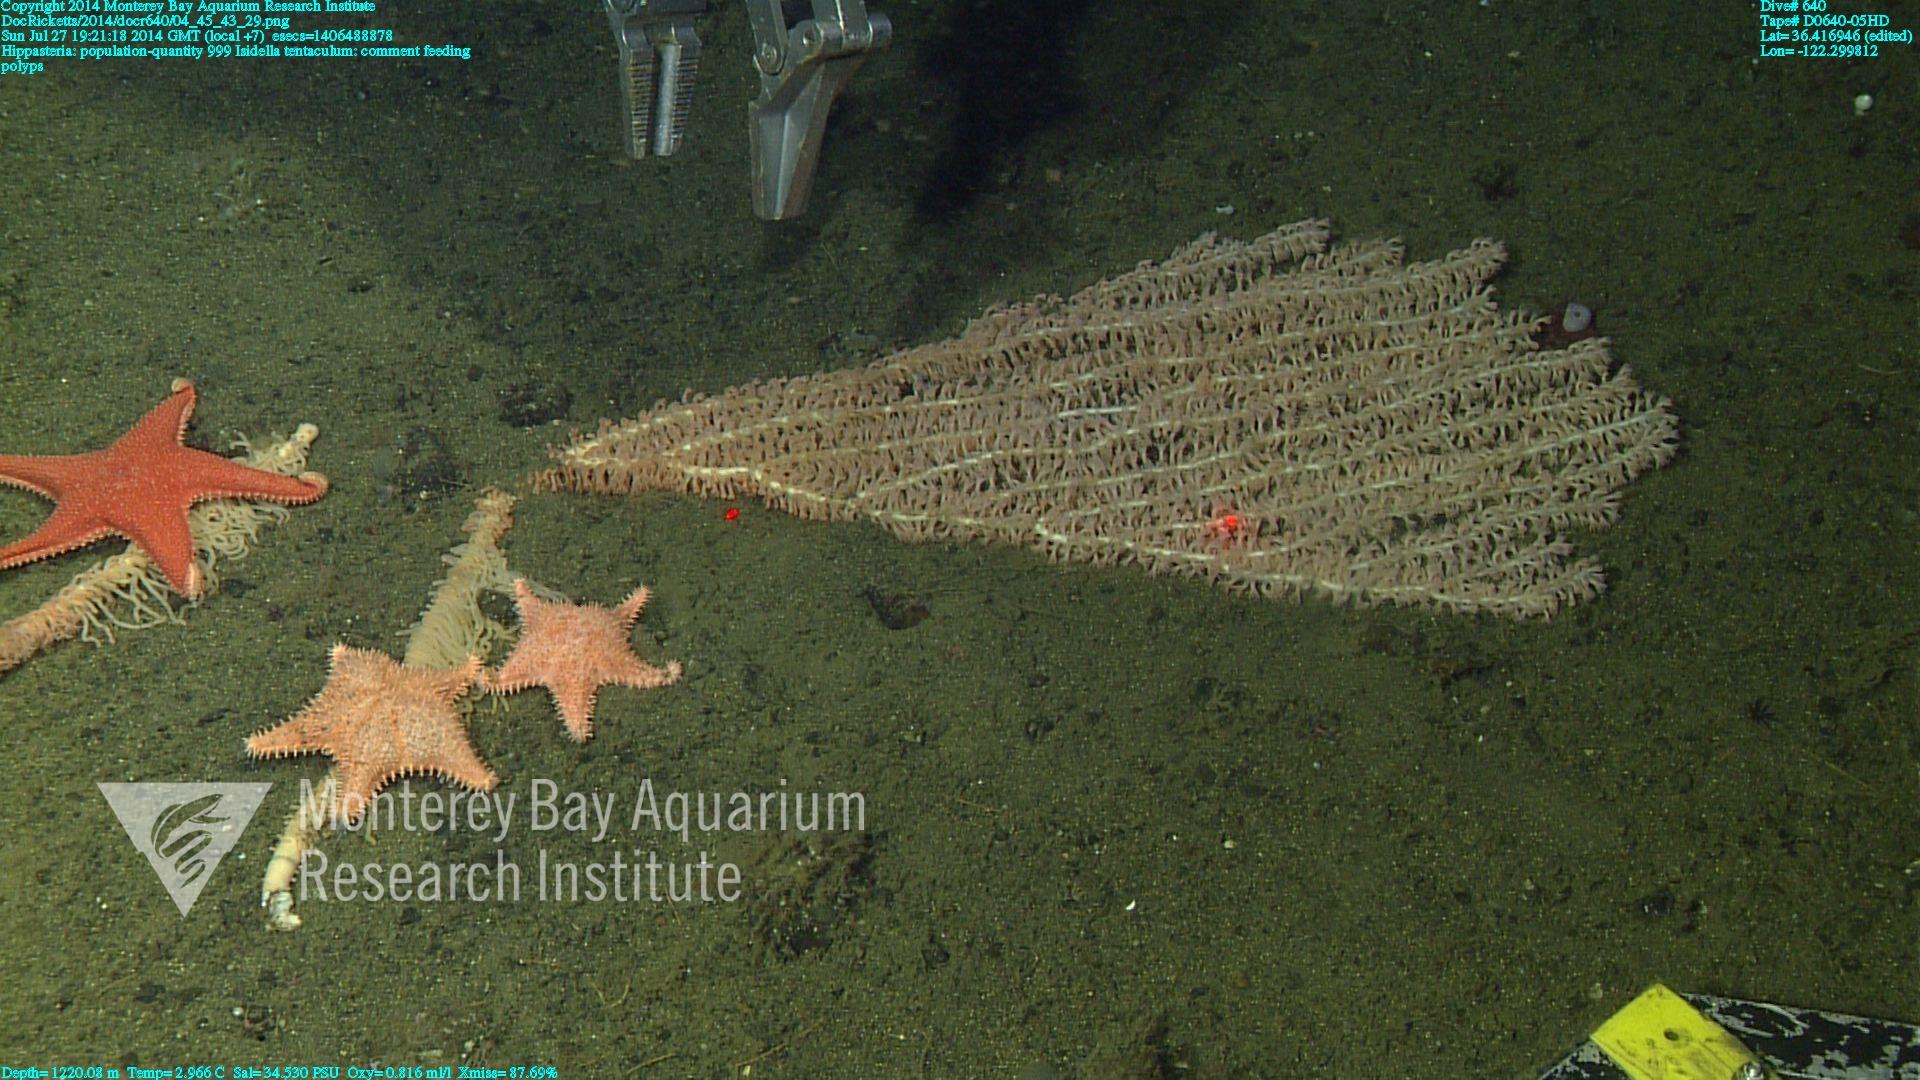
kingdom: Animalia
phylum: Cnidaria
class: Anthozoa
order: Scleralcyonacea
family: Keratoisididae
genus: Isidella
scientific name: Isidella tentaculum
